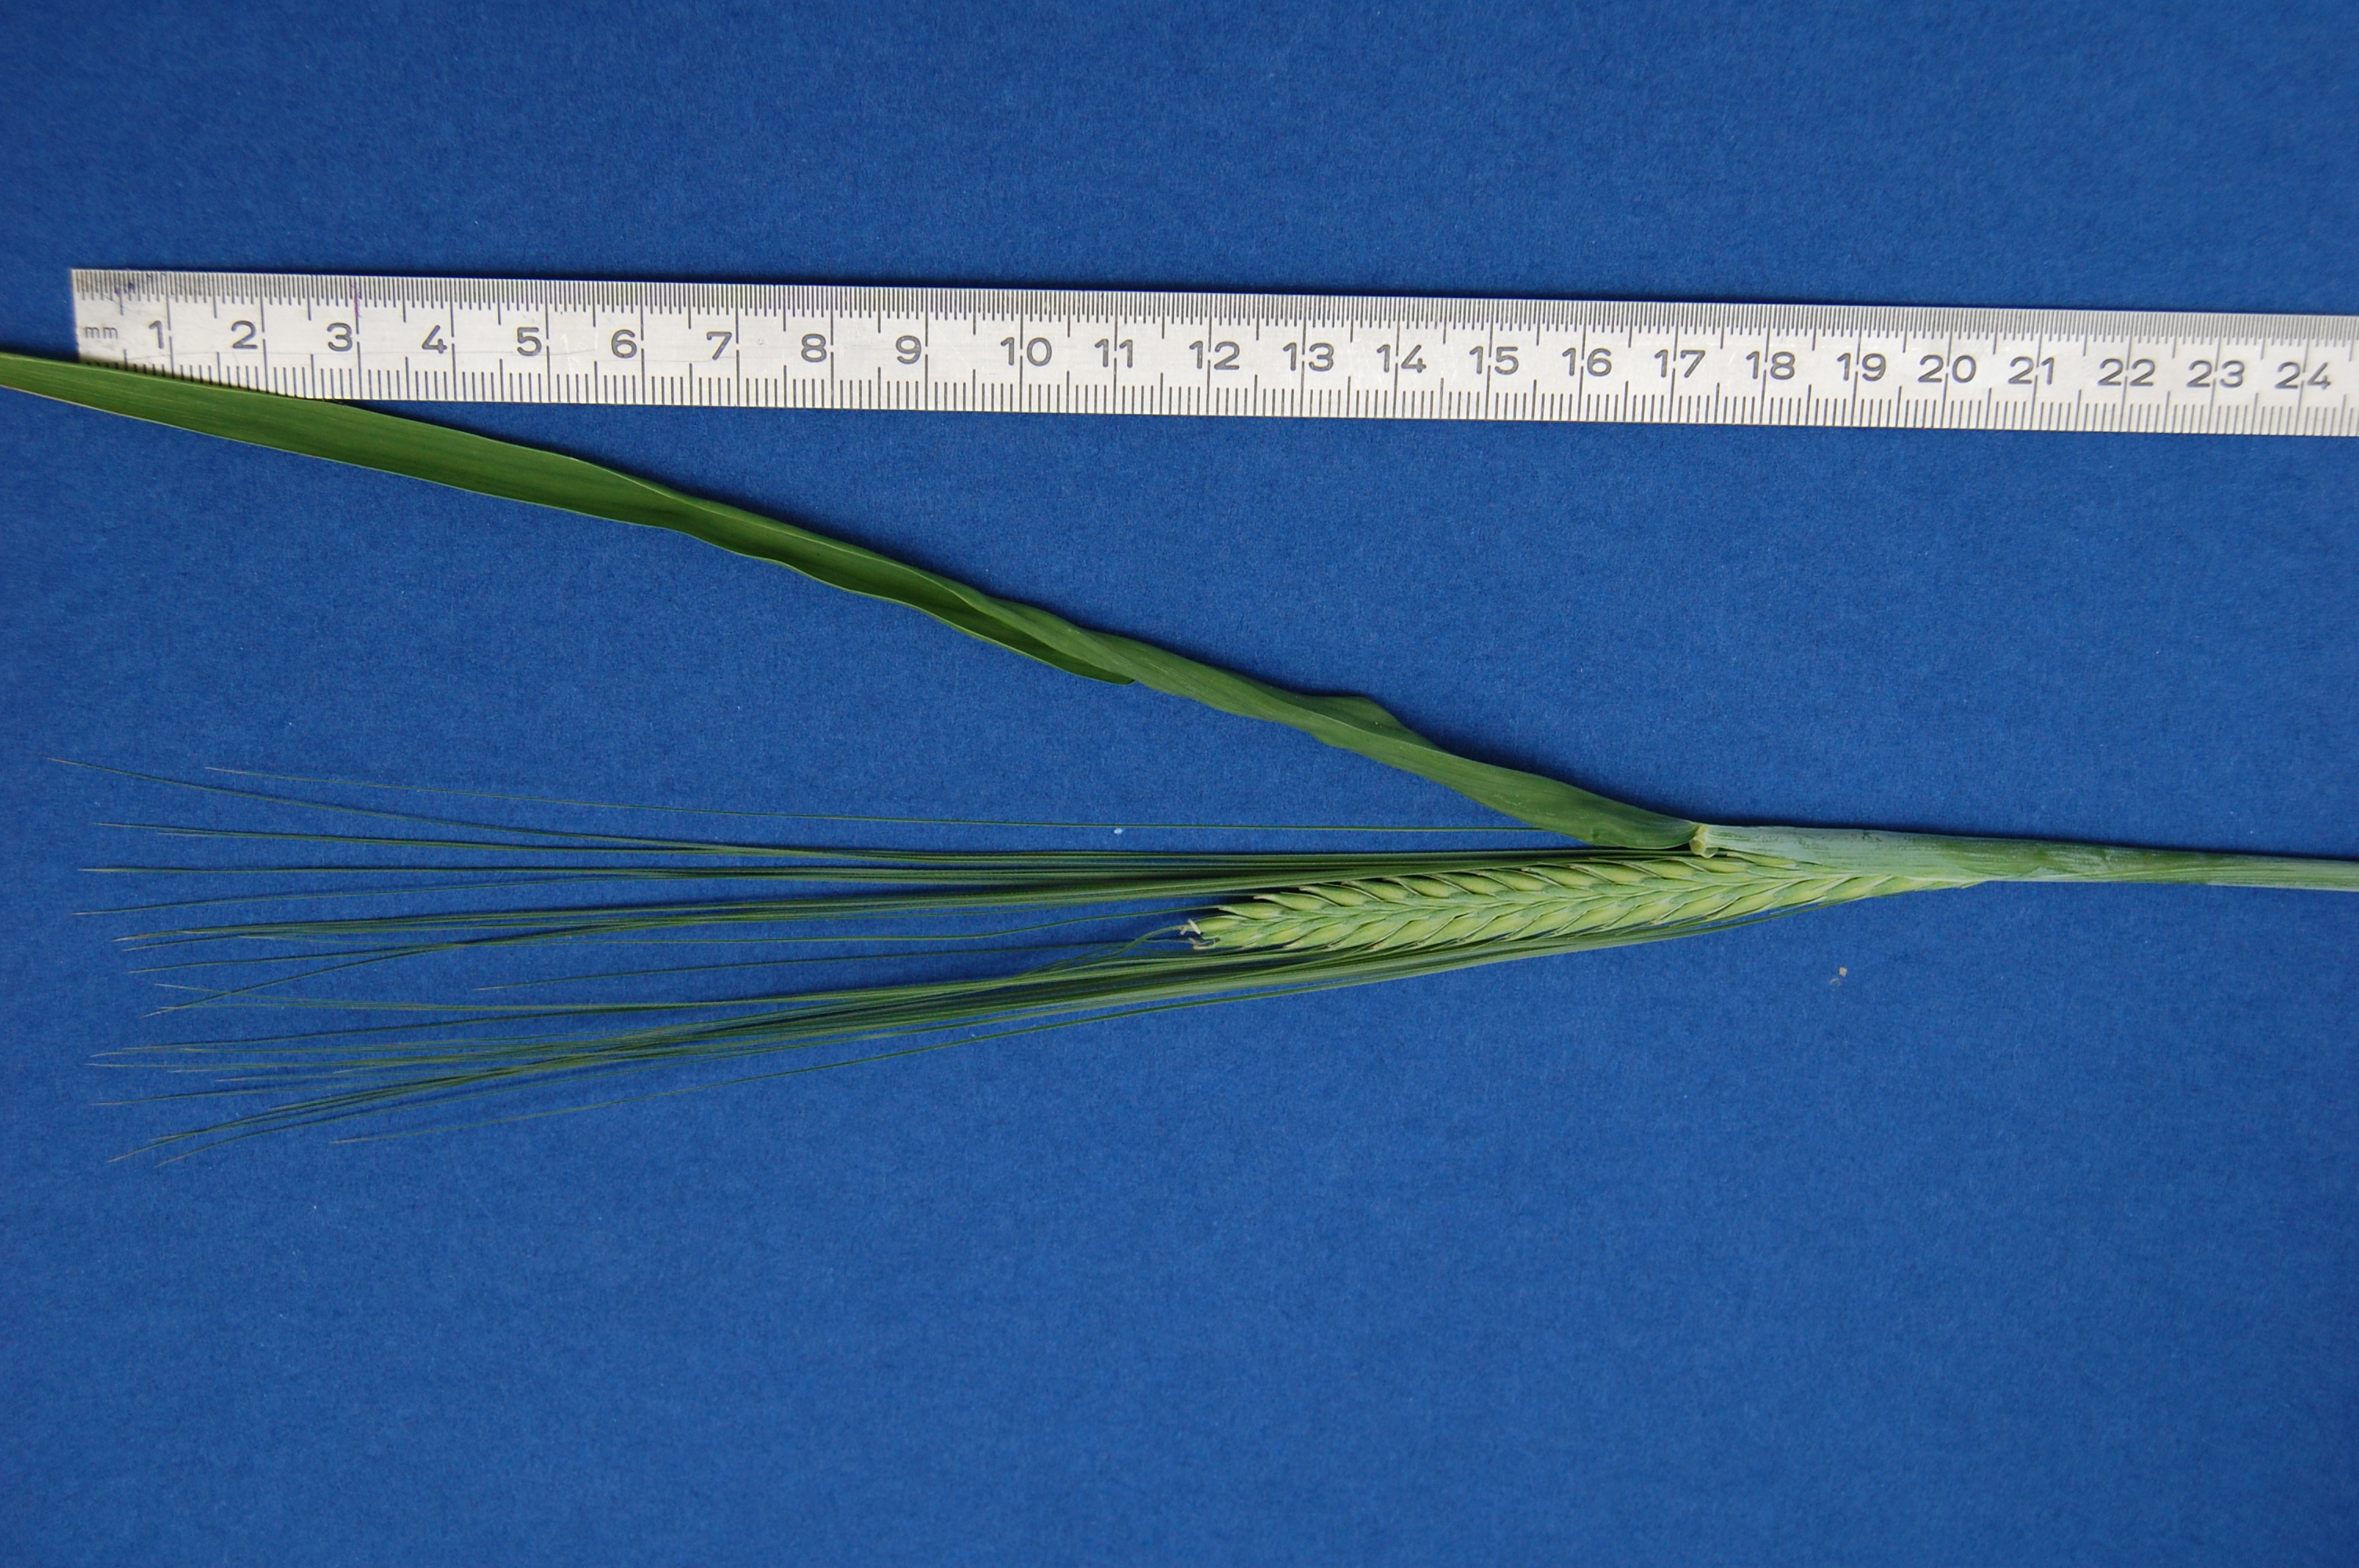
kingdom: Plantae
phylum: Tracheophyta
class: Liliopsida
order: Poales
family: Poaceae
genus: Hordeum
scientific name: Hordeum vulgare
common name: Common barley
